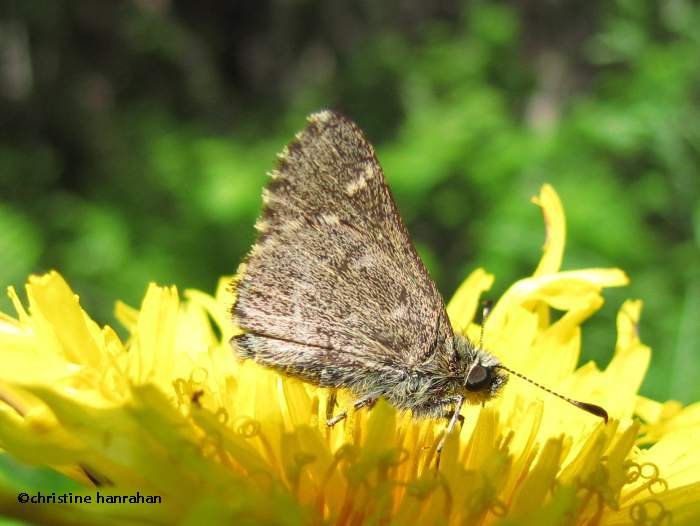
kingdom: Animalia
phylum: Arthropoda
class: Insecta
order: Lepidoptera
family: Hesperiidae
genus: Mastor
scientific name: Mastor hegon
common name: Pepper and Salt Skipper
